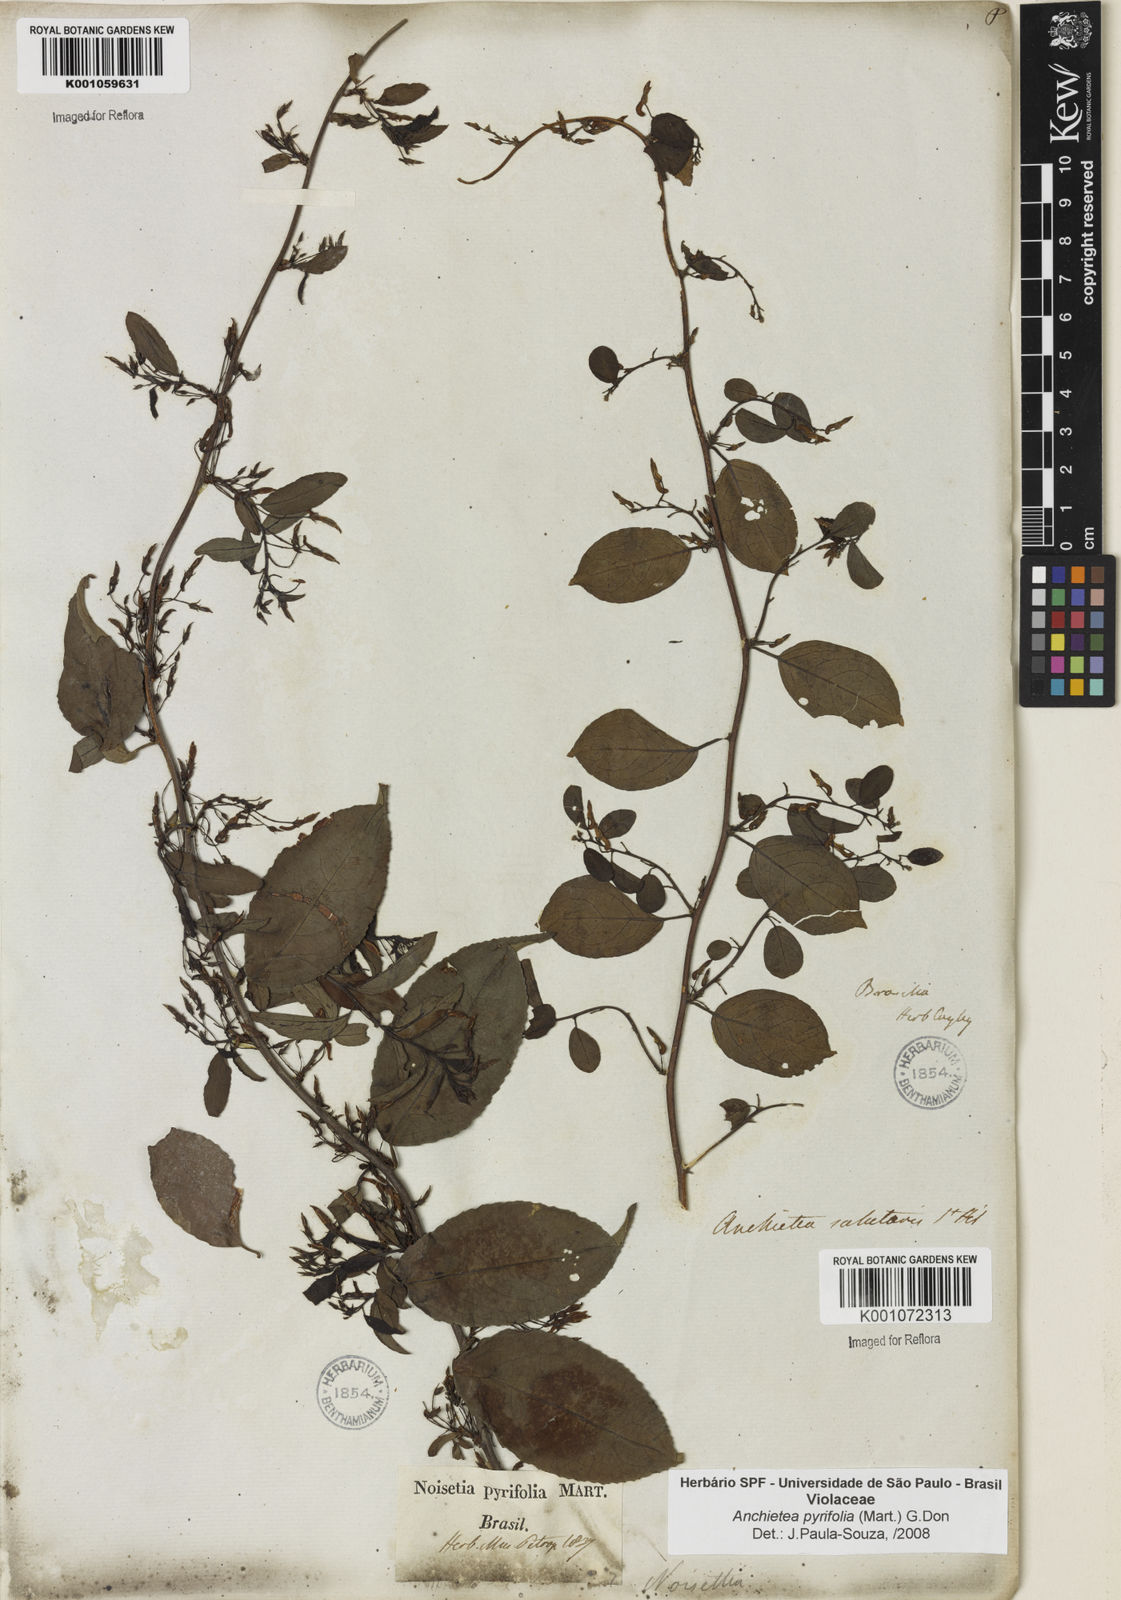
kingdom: Plantae
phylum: Tracheophyta
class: Magnoliopsida
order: Malpighiales
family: Violaceae
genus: Anchietea
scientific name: Anchietea pyrifolia
